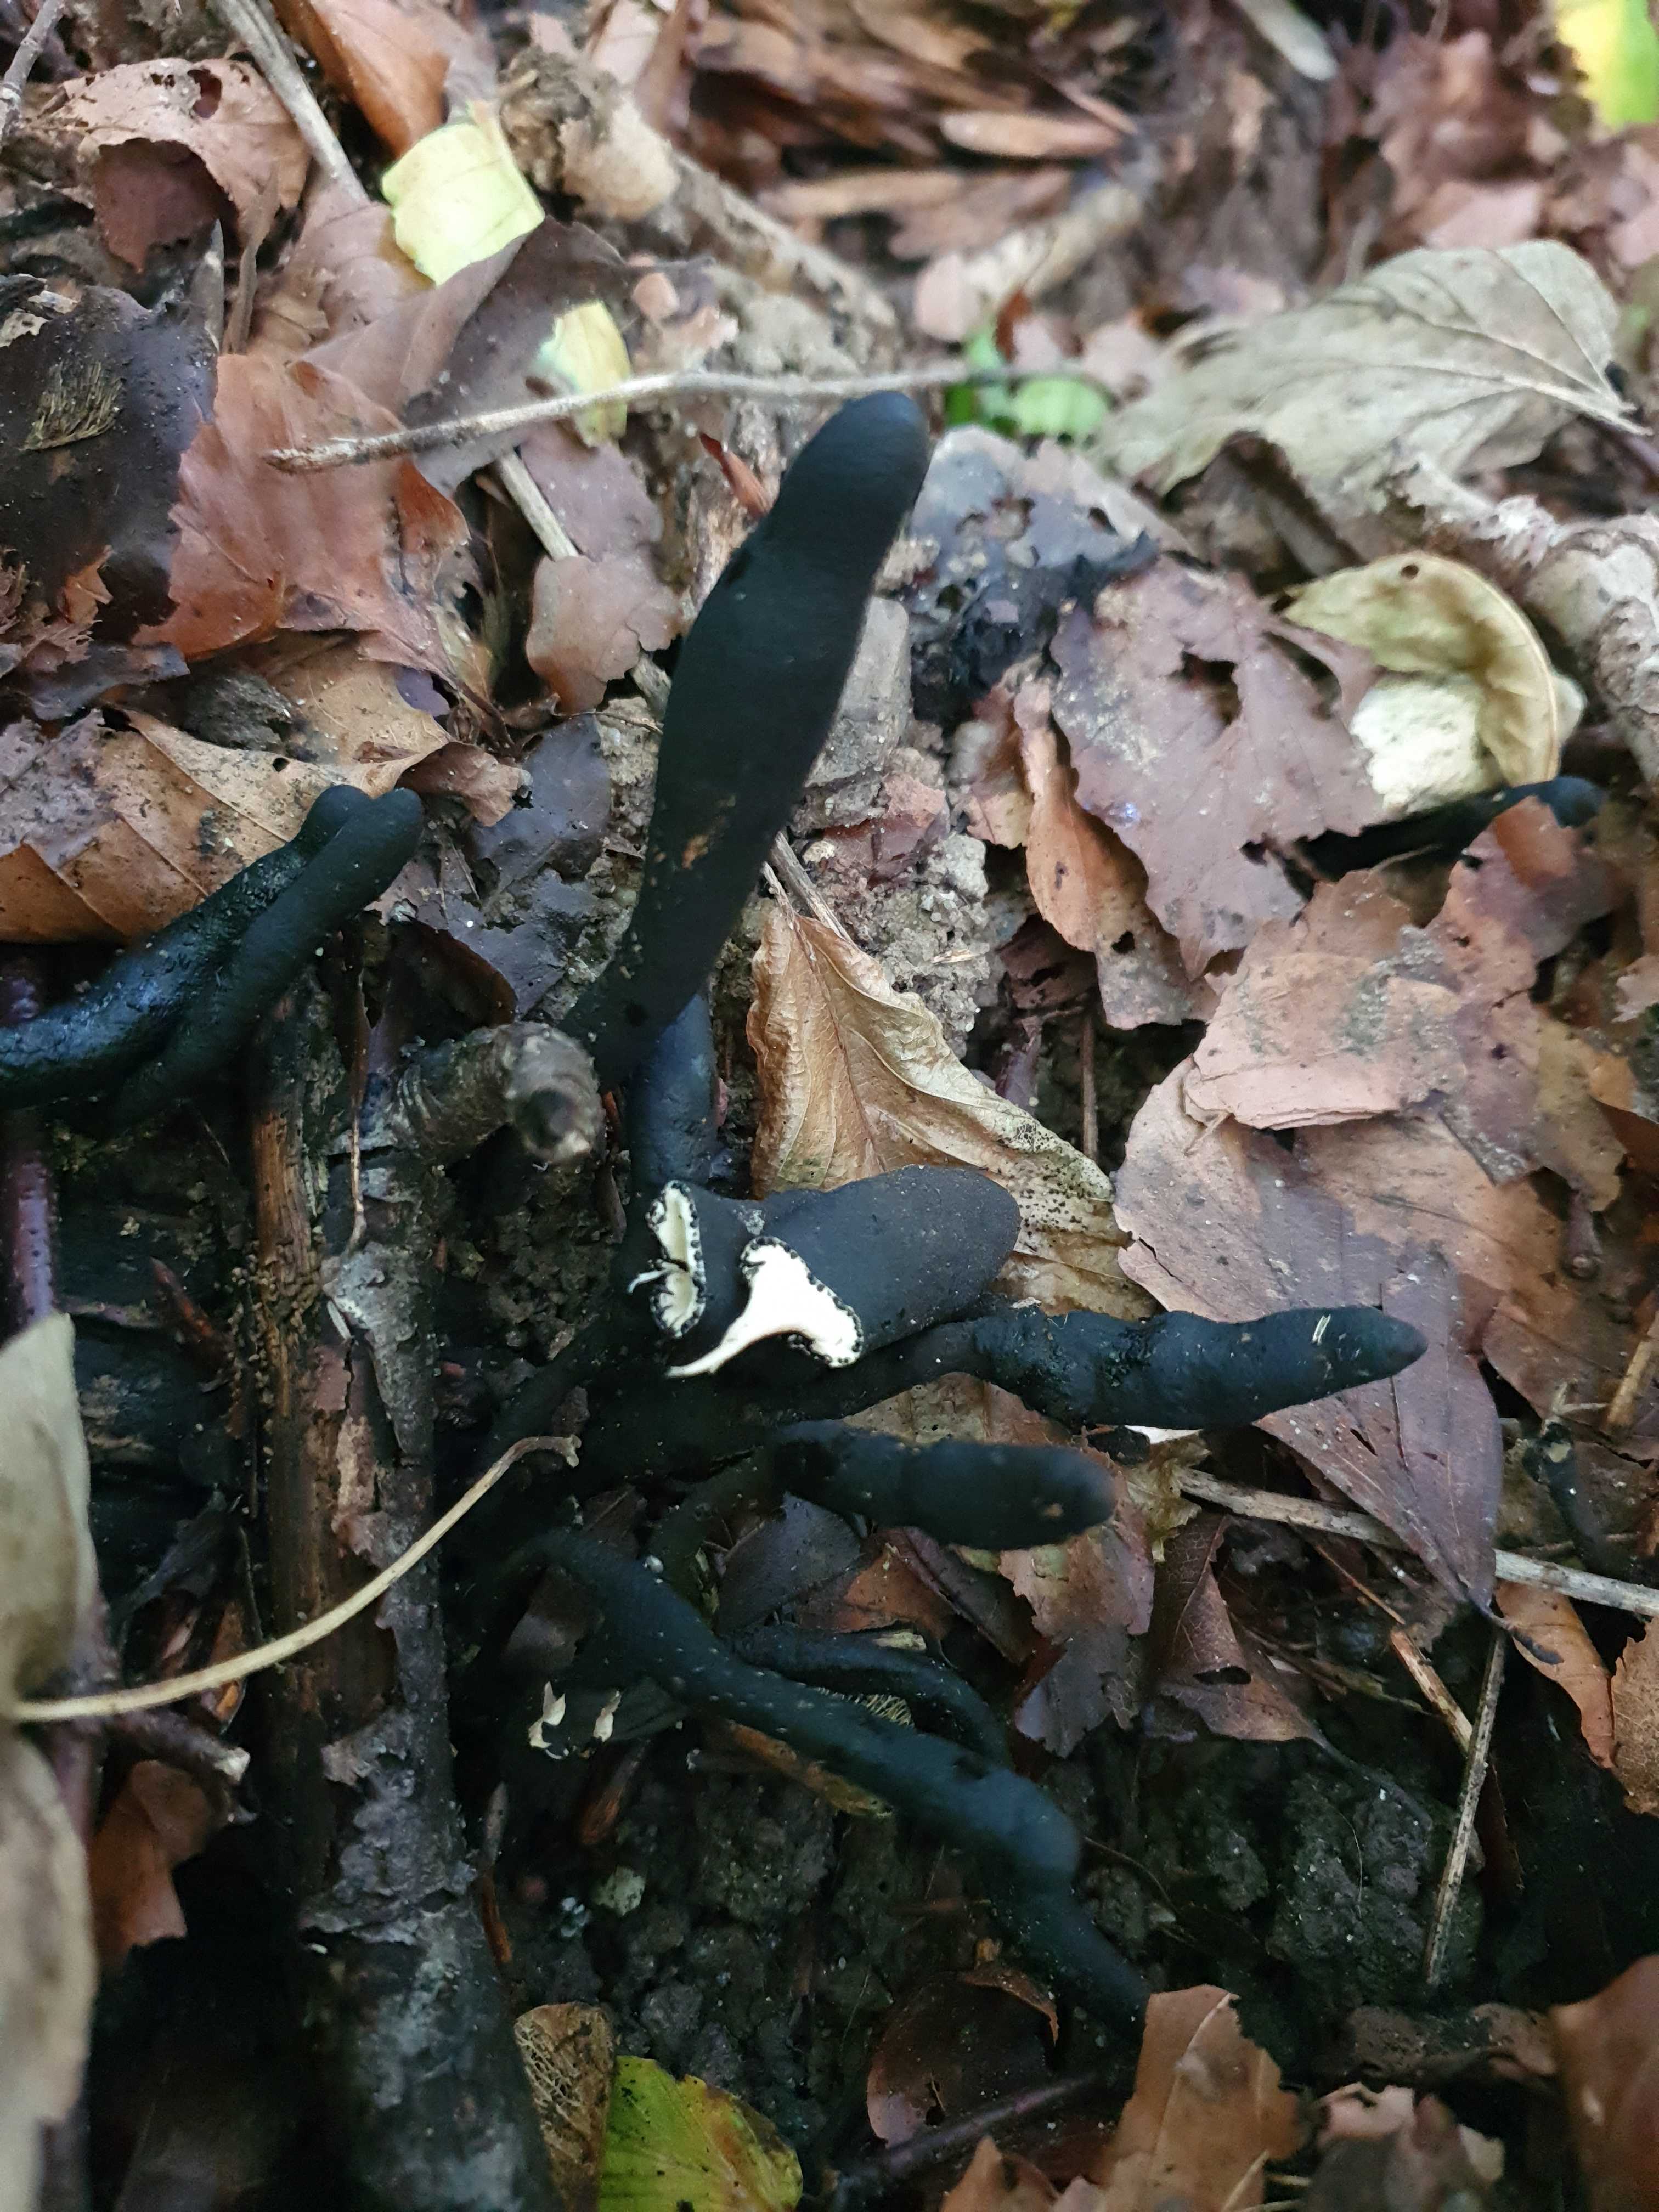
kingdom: Fungi
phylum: Ascomycota
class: Sordariomycetes
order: Xylariales
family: Xylariaceae
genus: Xylaria
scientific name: Xylaria longipes
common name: slank stødsvamp
